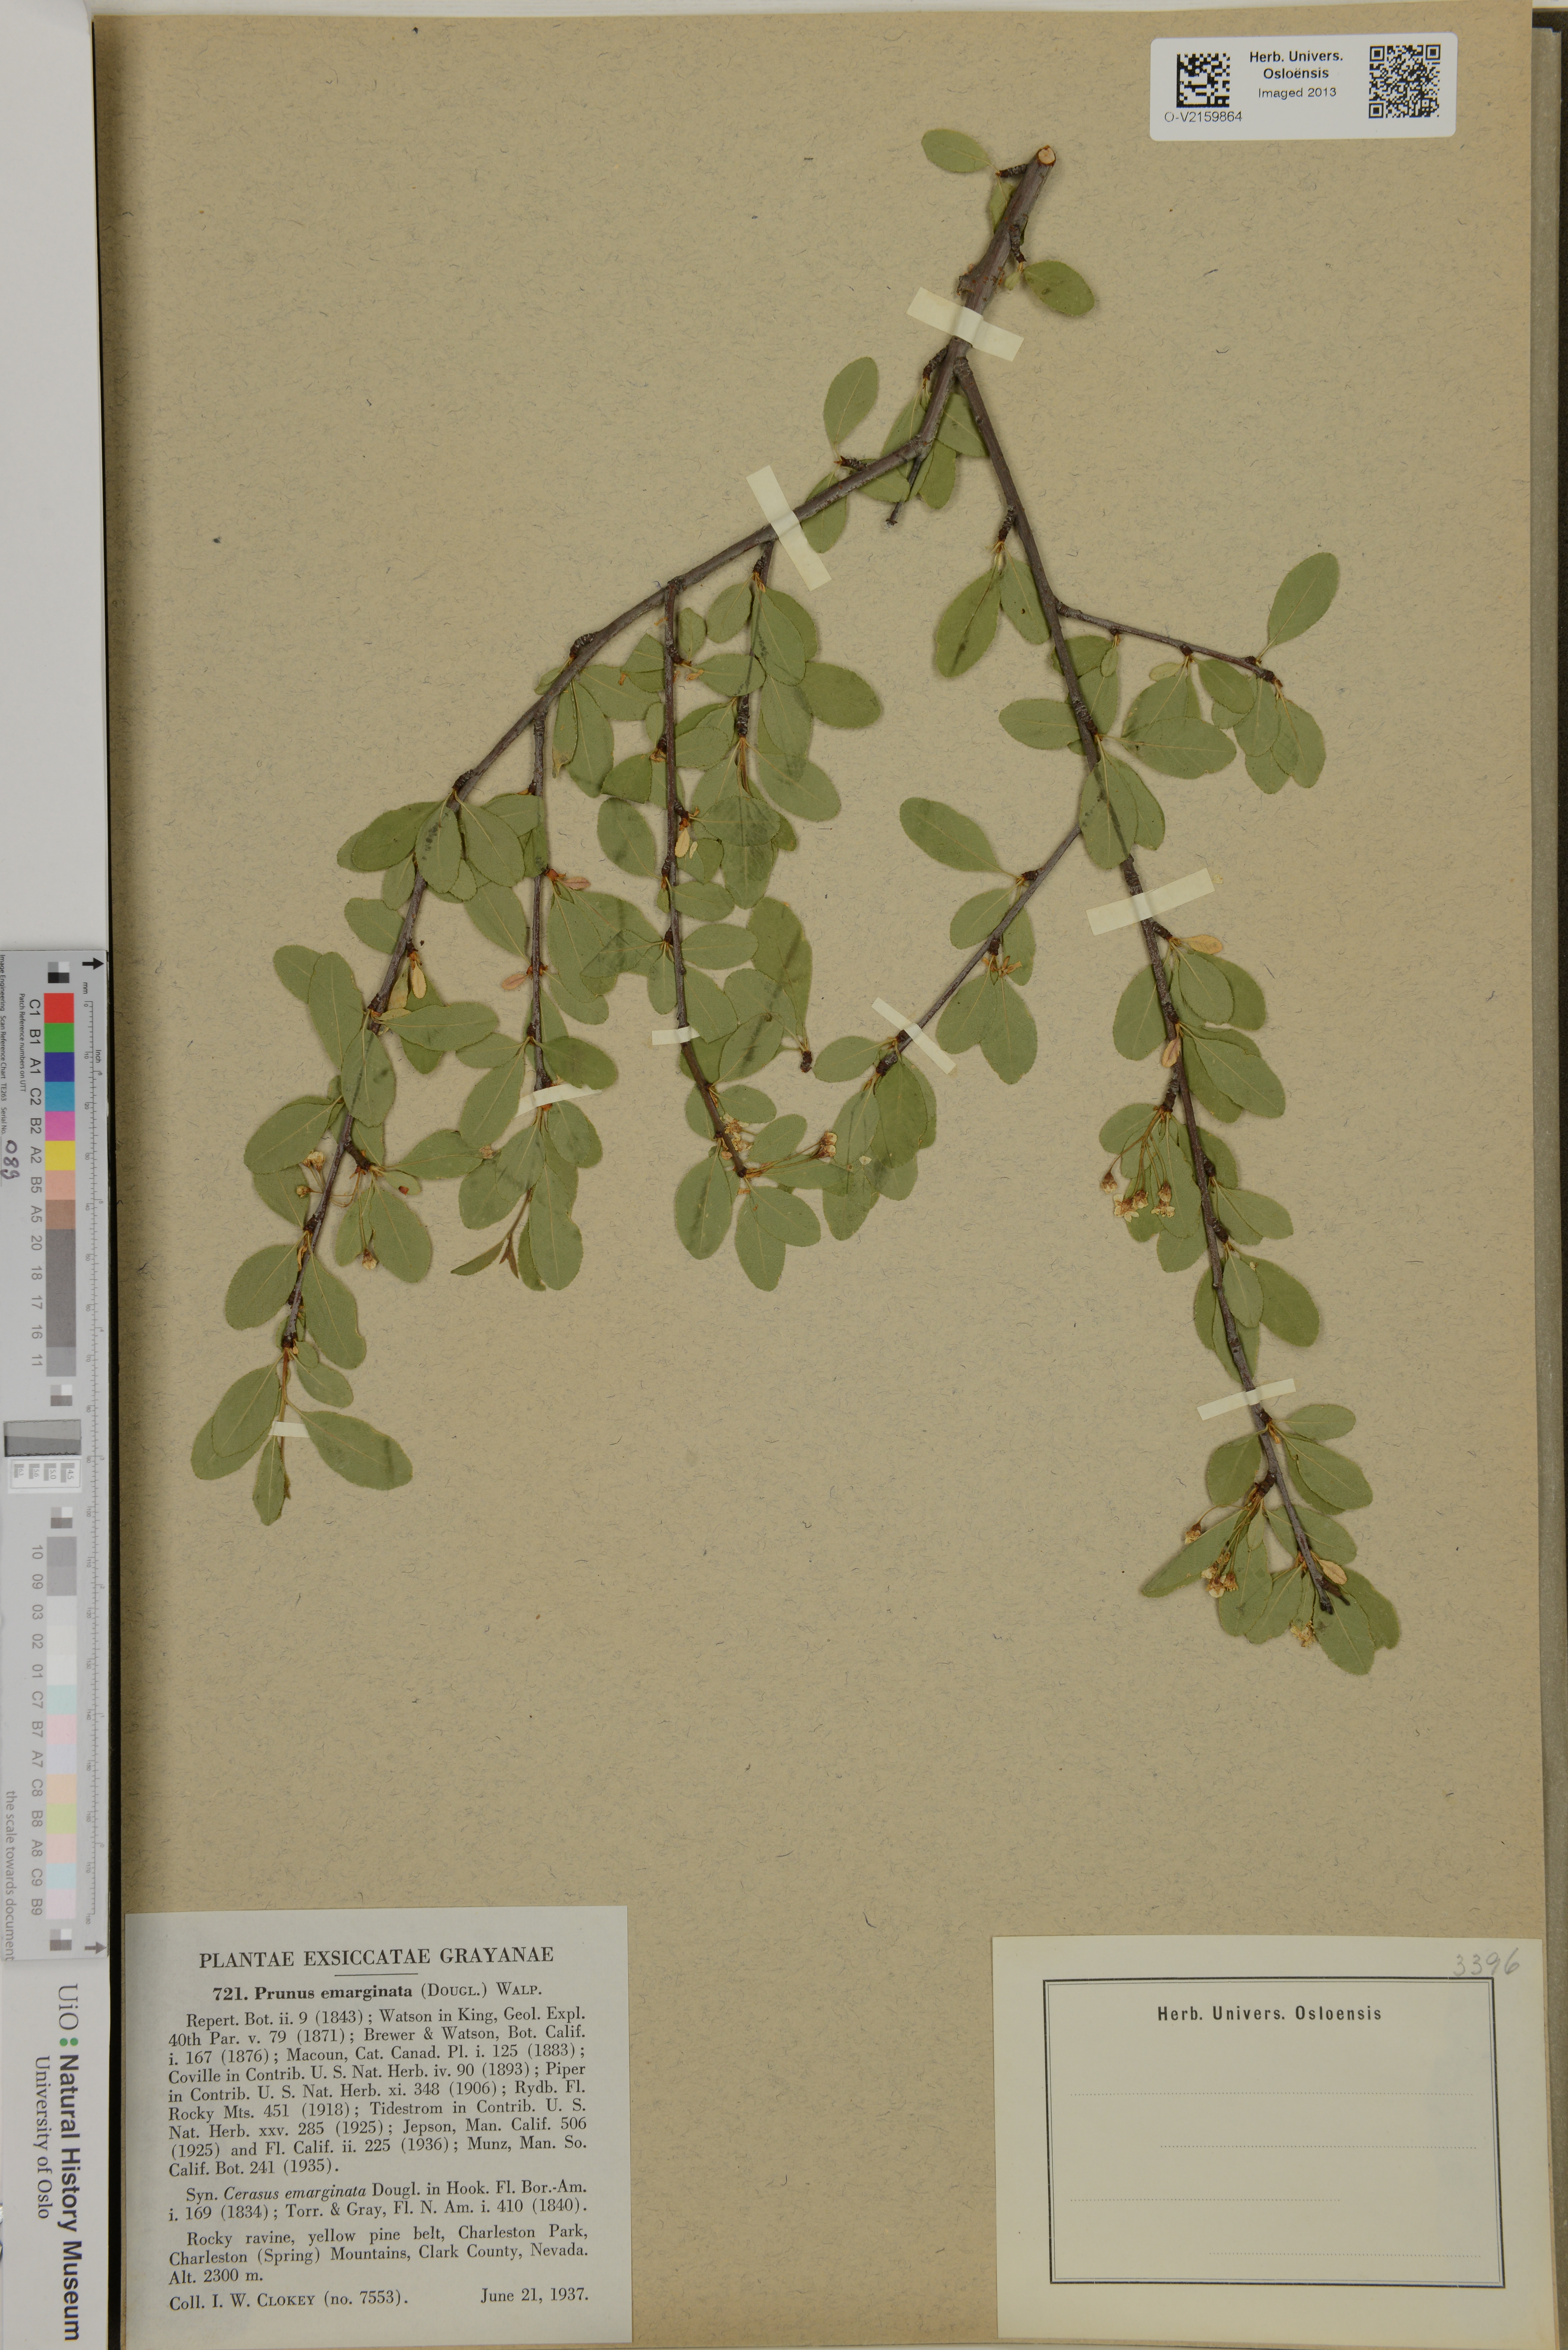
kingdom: Plantae
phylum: Tracheophyta
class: Magnoliopsida
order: Rosales
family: Rosaceae
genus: Prunus
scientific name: Prunus emarginata
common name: Bitter cherry
